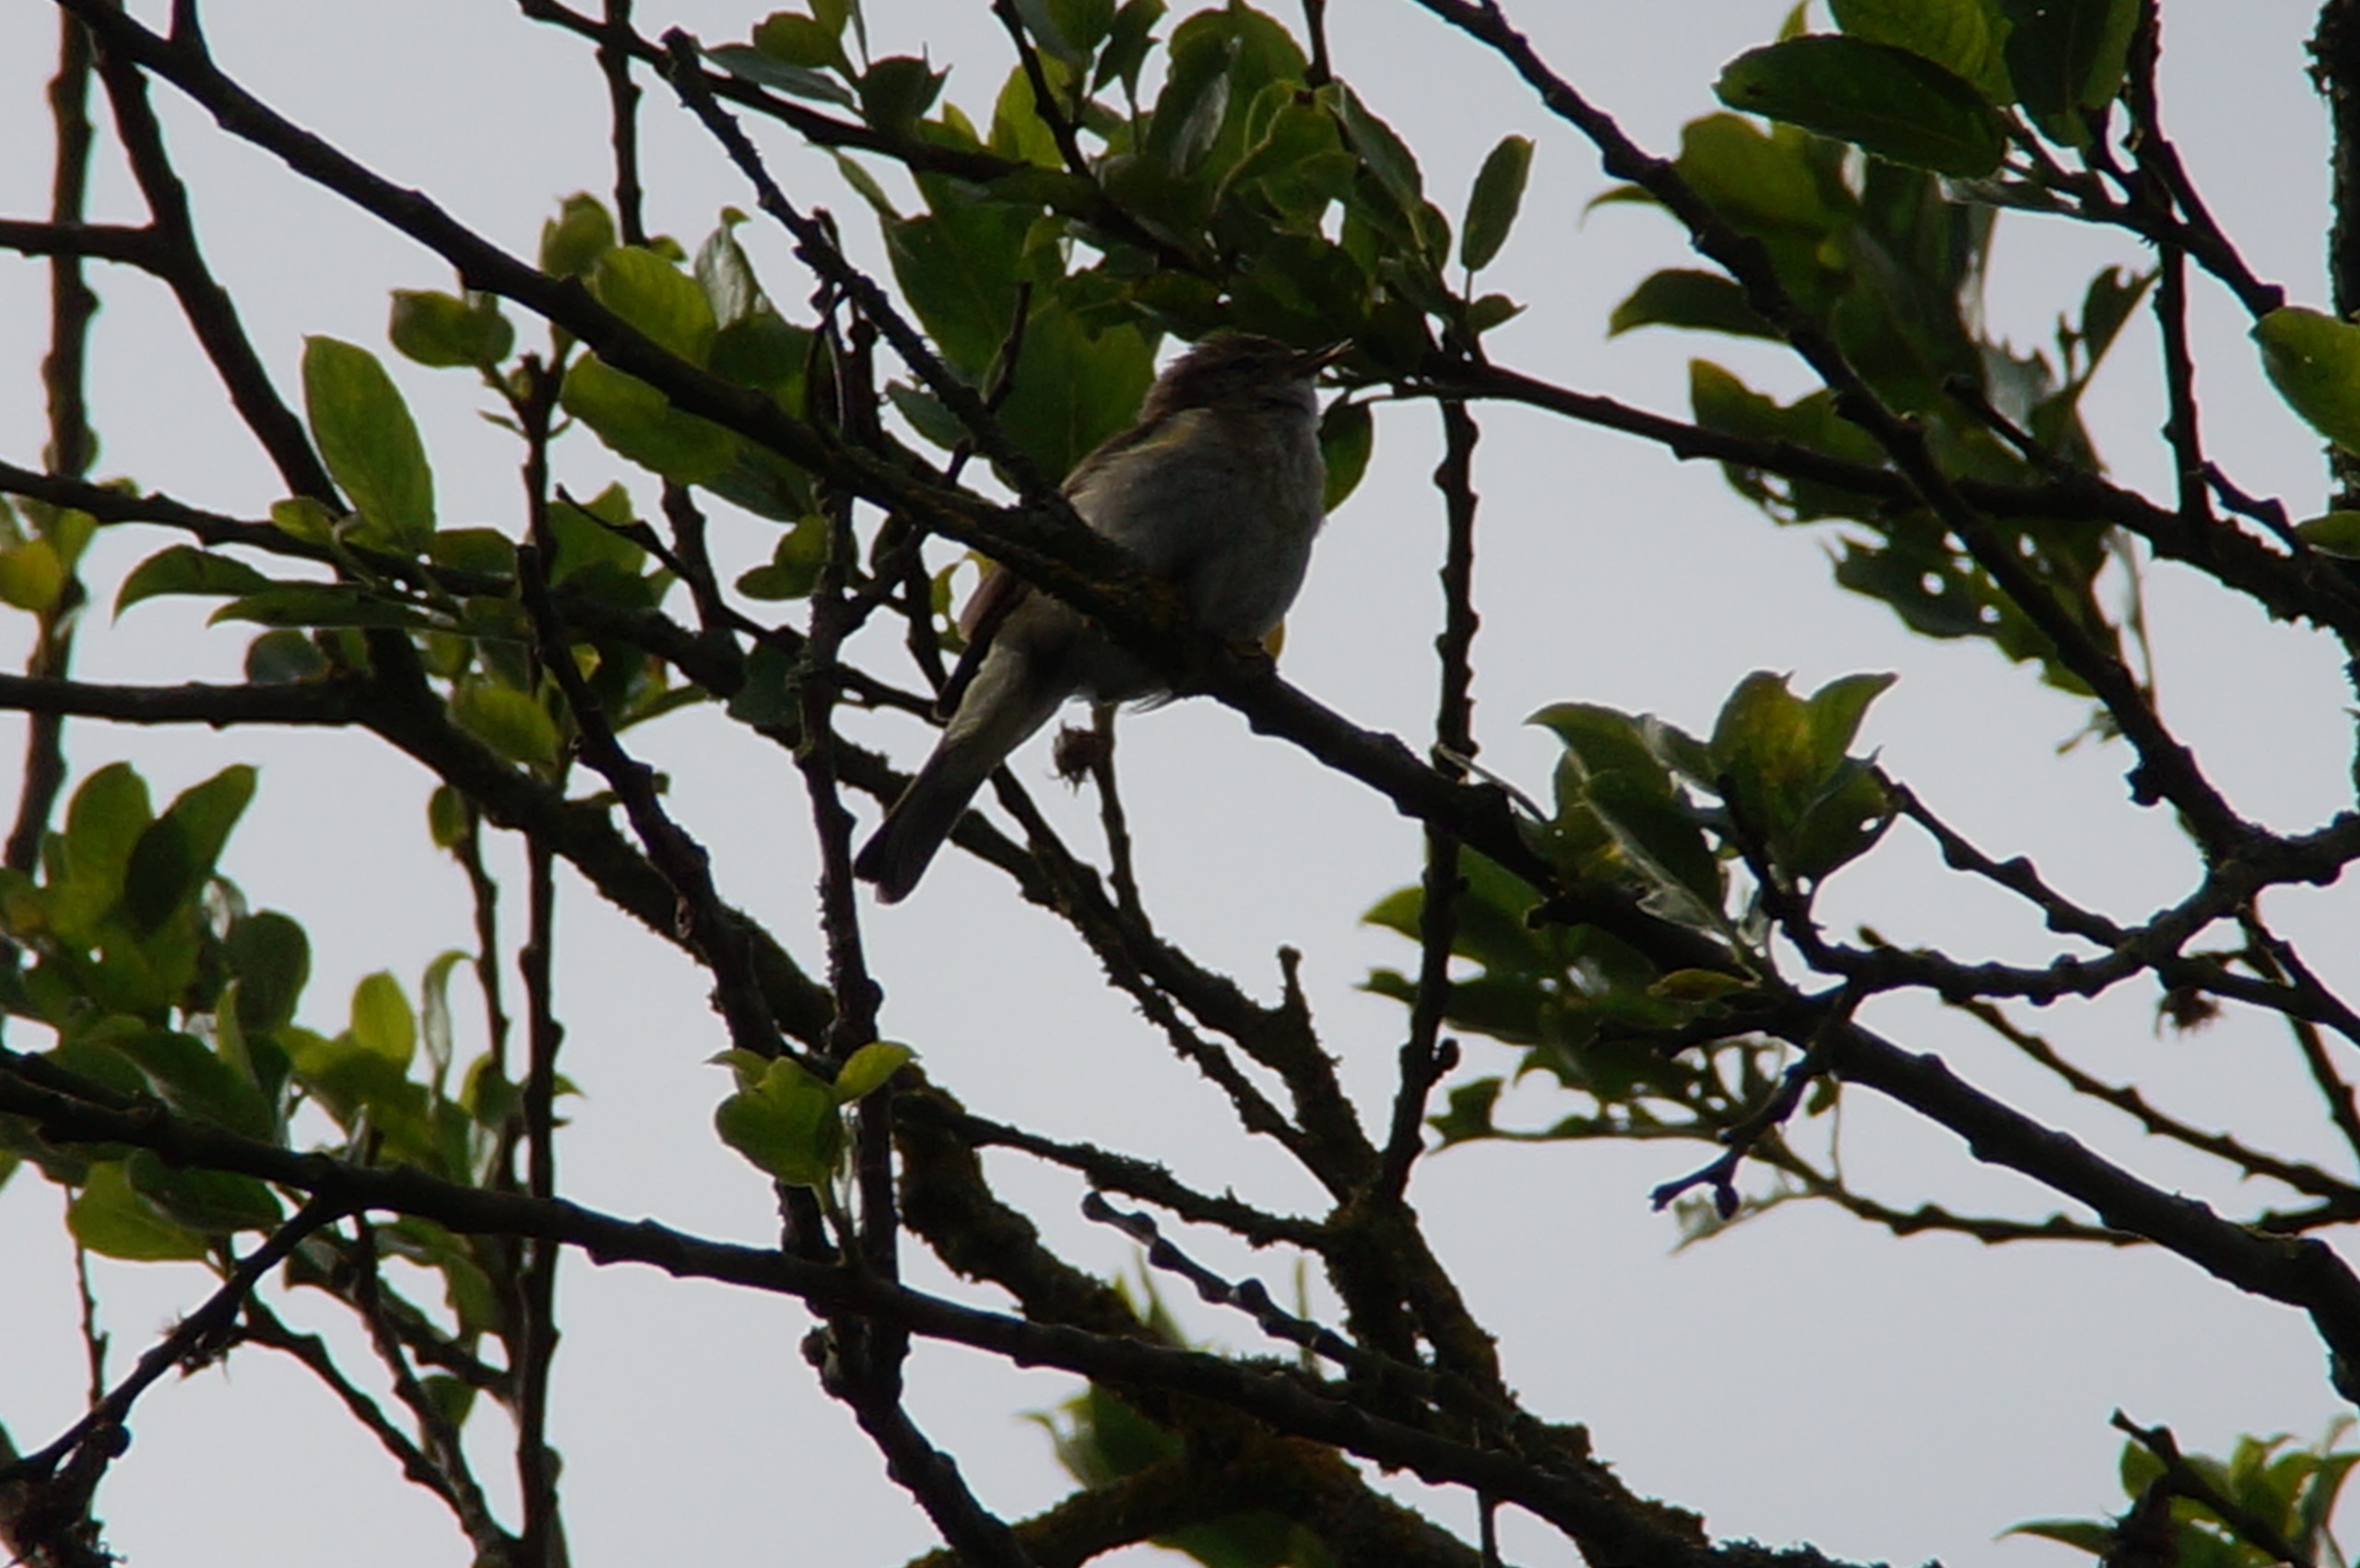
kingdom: Animalia
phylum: Chordata
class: Aves
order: Passeriformes
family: Phylloscopidae
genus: Phylloscopus
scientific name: Phylloscopus collybita
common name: Gransanger
